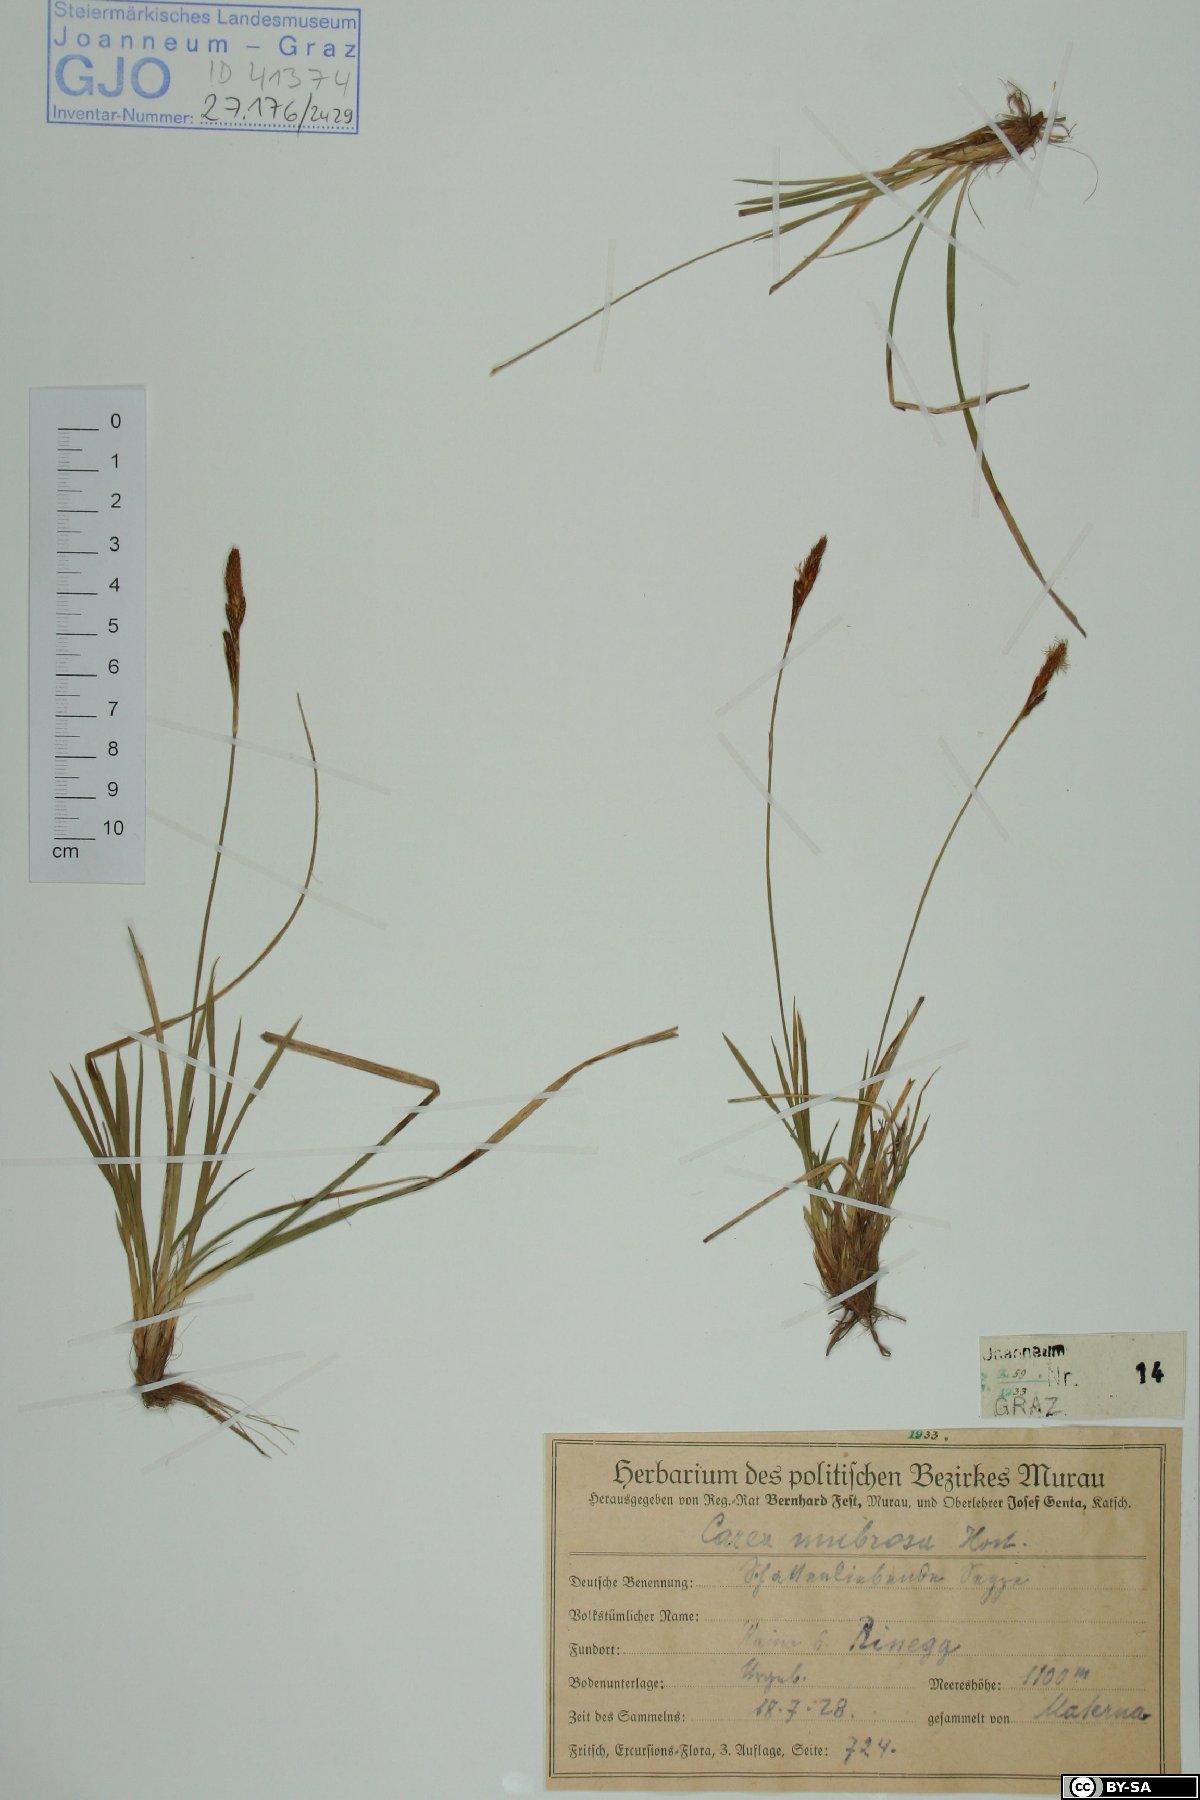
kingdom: Plantae
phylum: Tracheophyta
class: Liliopsida
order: Poales
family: Cyperaceae
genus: Carex
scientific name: Carex umbrosa
